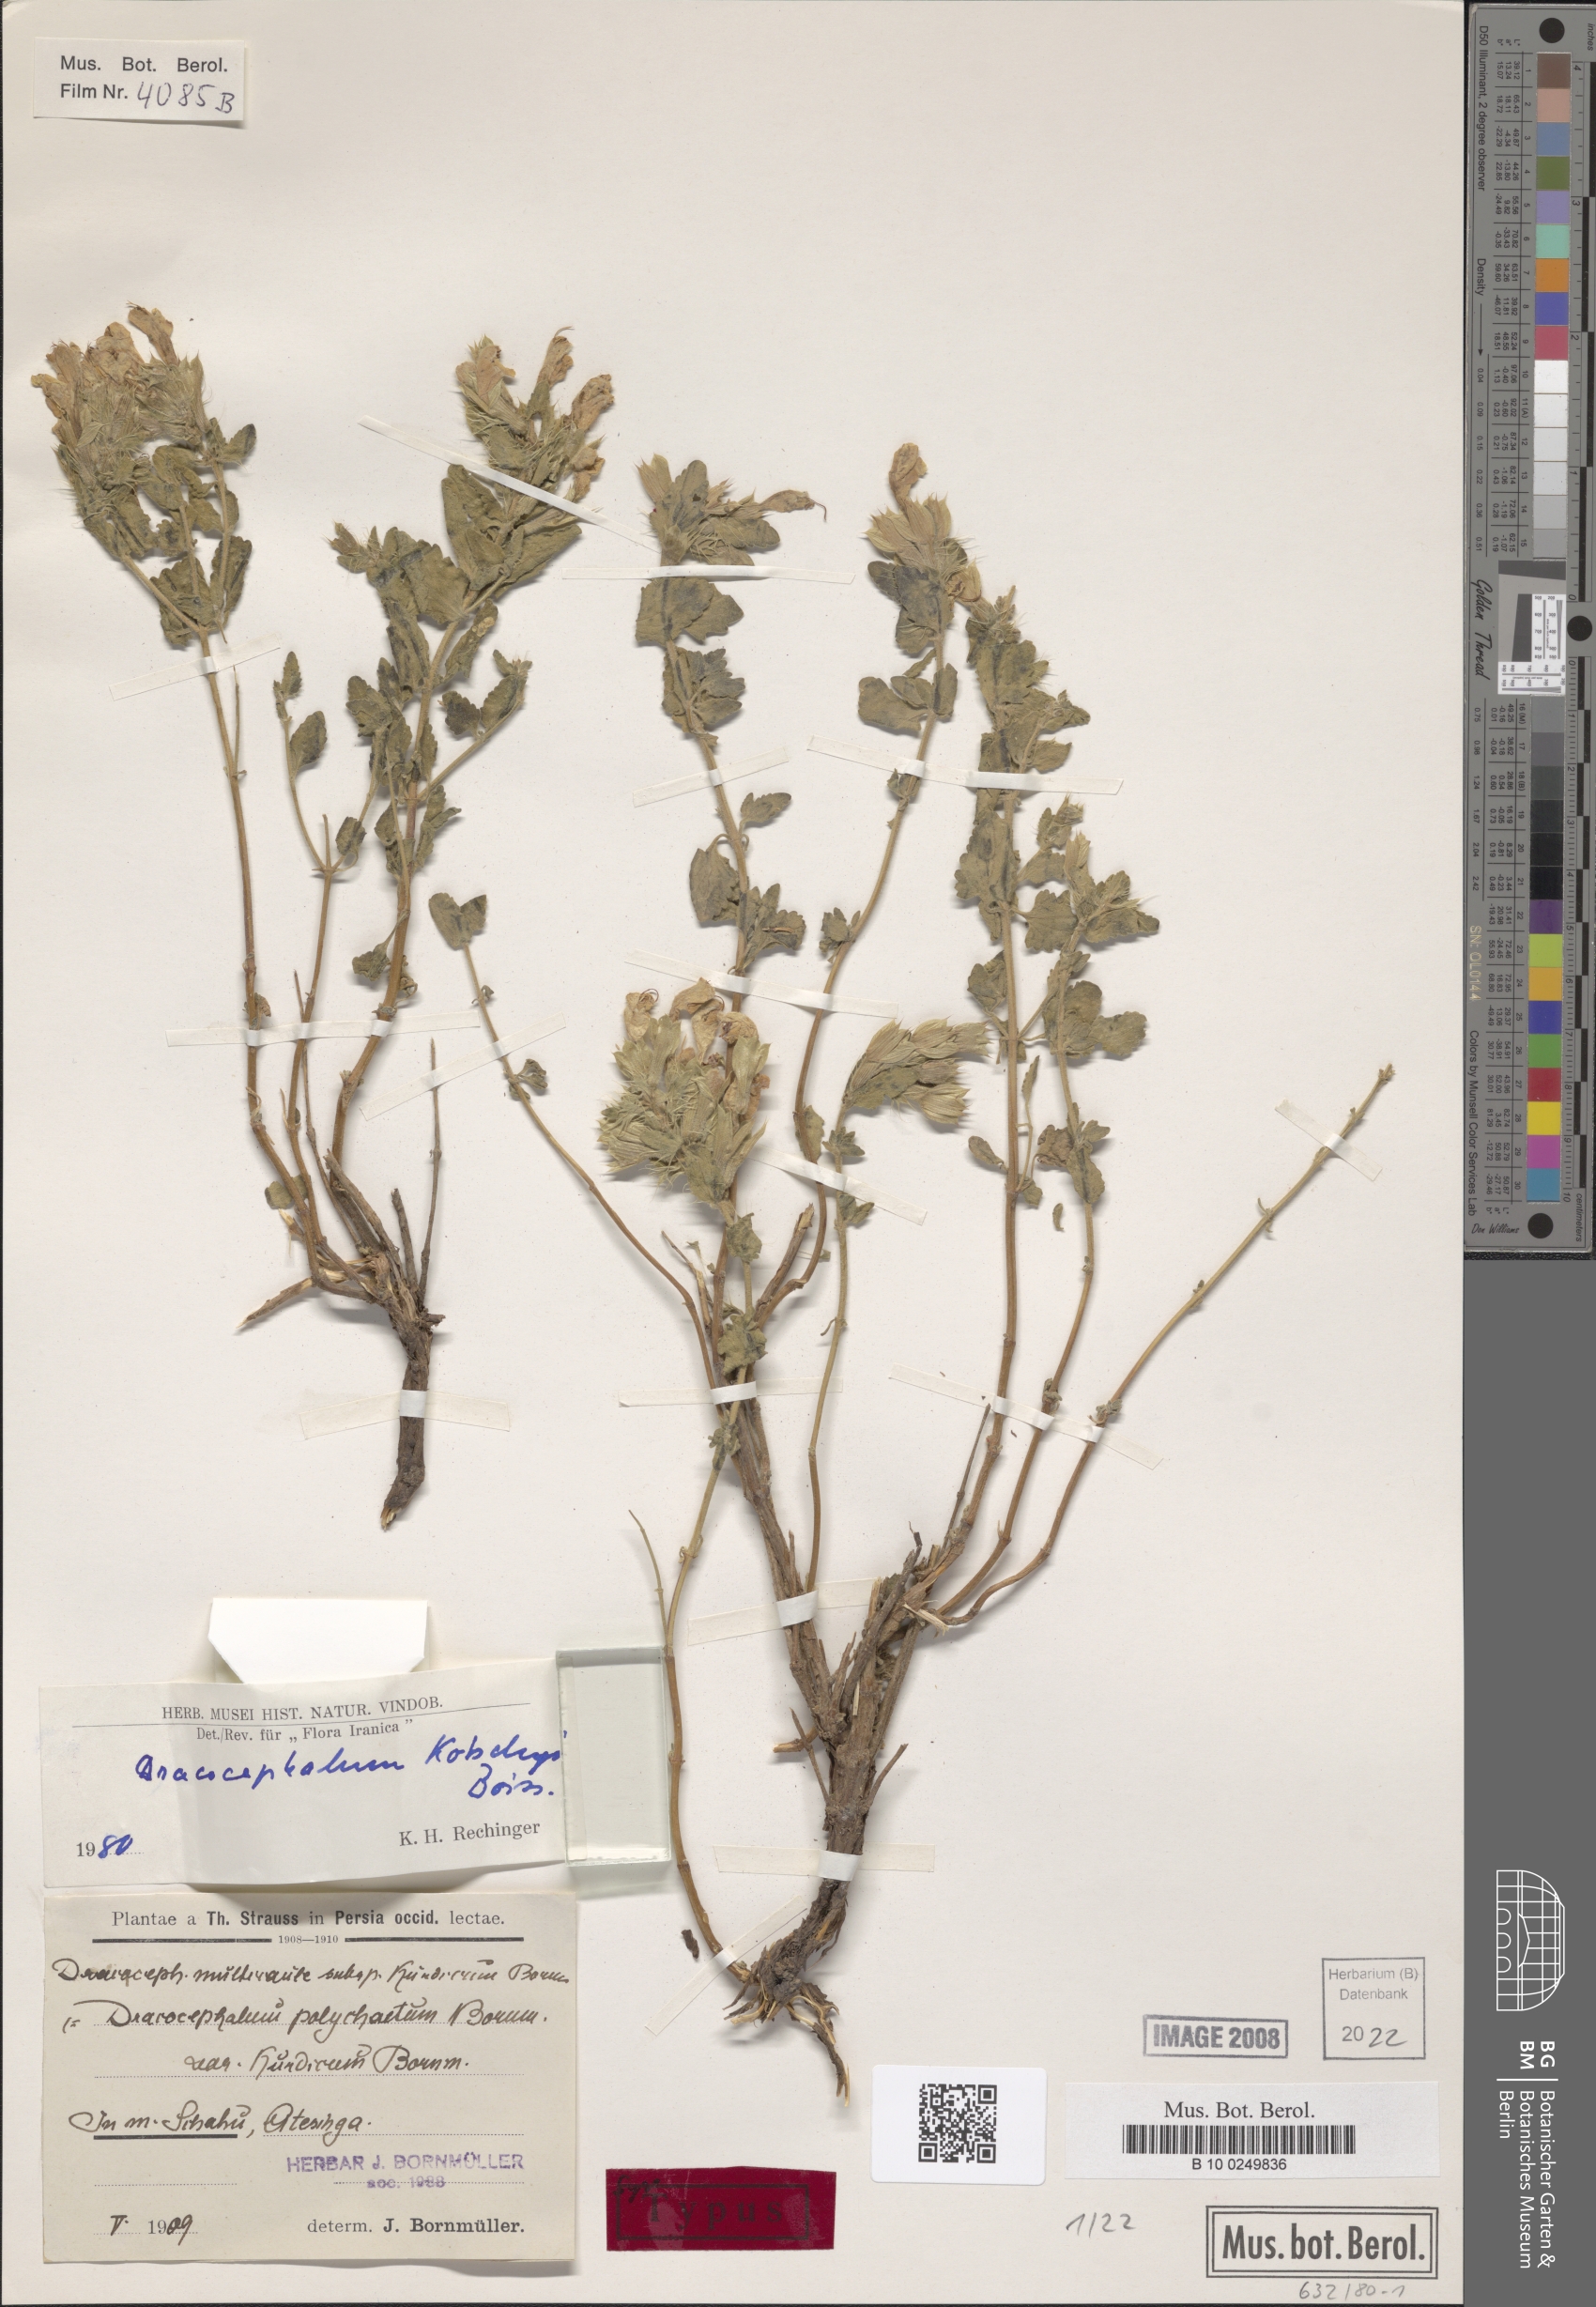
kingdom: Plantae
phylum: Tracheophyta
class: Magnoliopsida
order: Lamiales
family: Lamiaceae
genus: Dracocephalum
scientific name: Dracocephalum kotschyi
